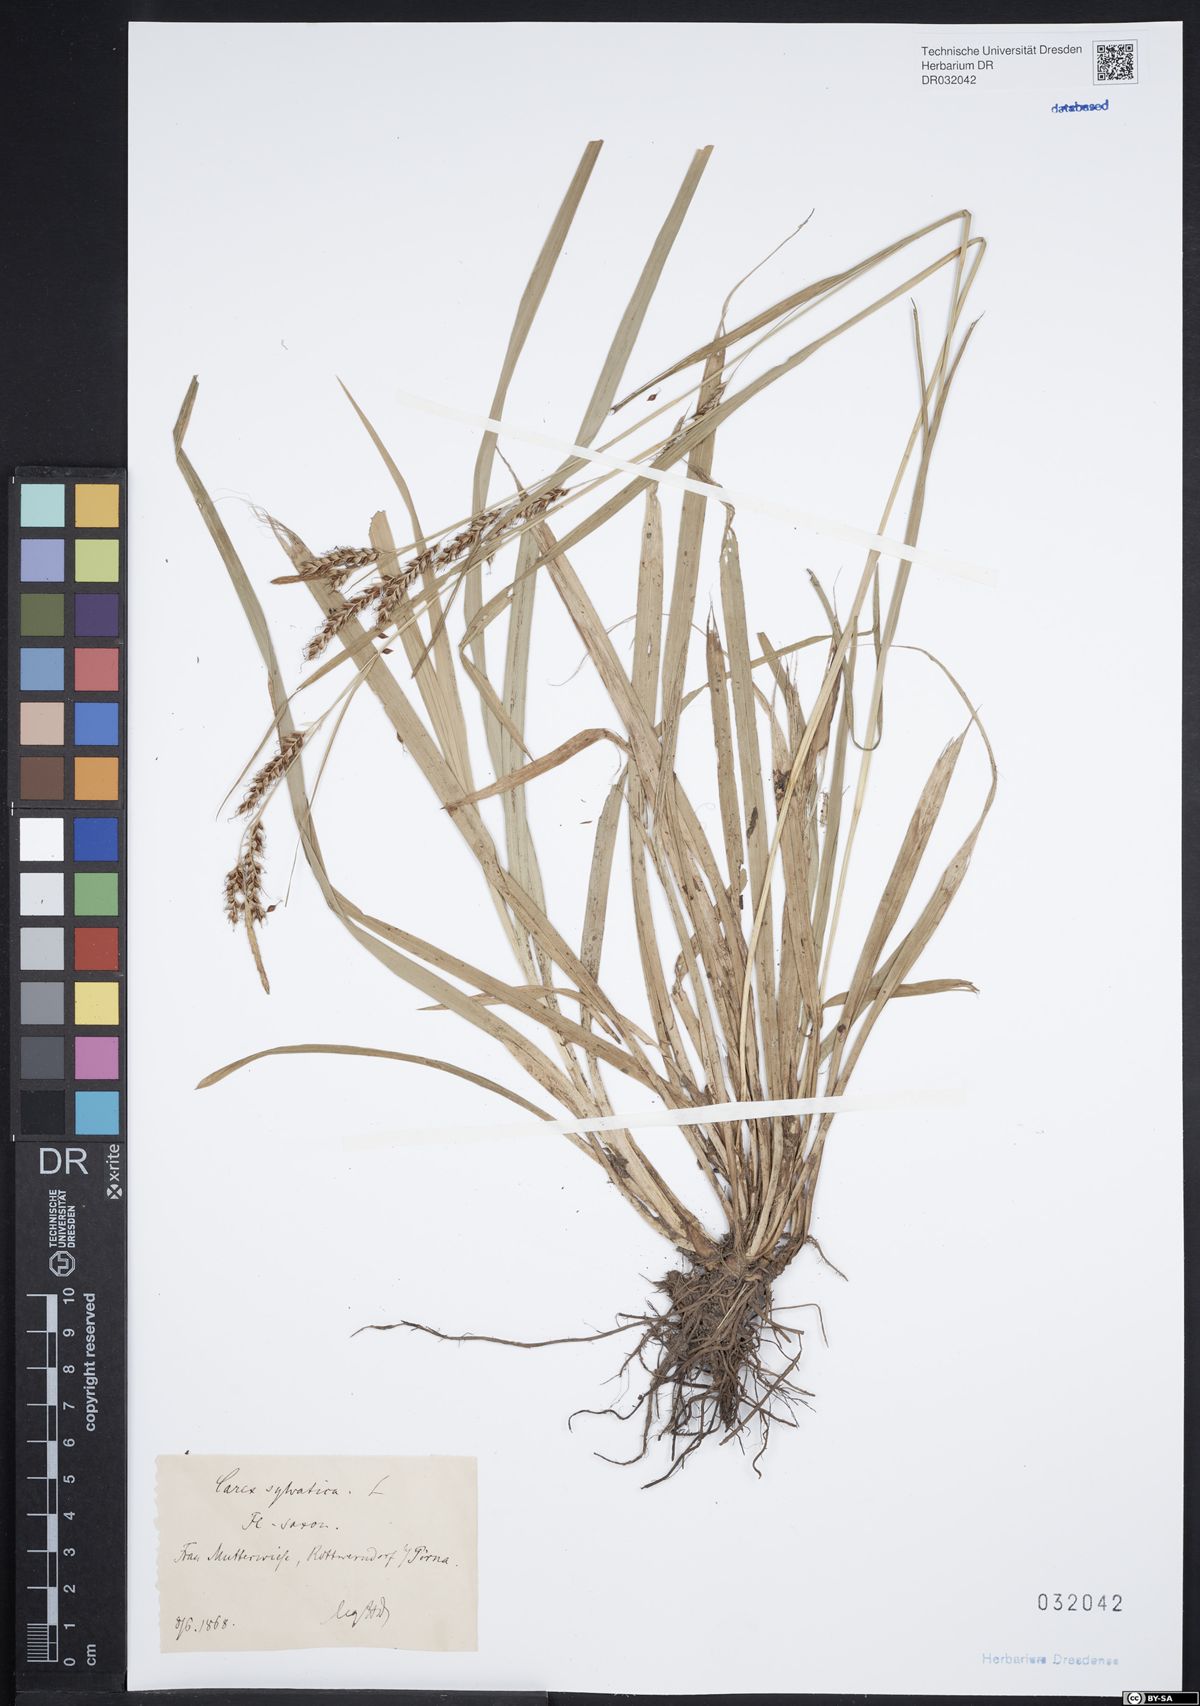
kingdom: Plantae
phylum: Tracheophyta
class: Liliopsida
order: Poales
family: Cyperaceae
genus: Carex
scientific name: Carex sylvatica
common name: Wood-sedge
